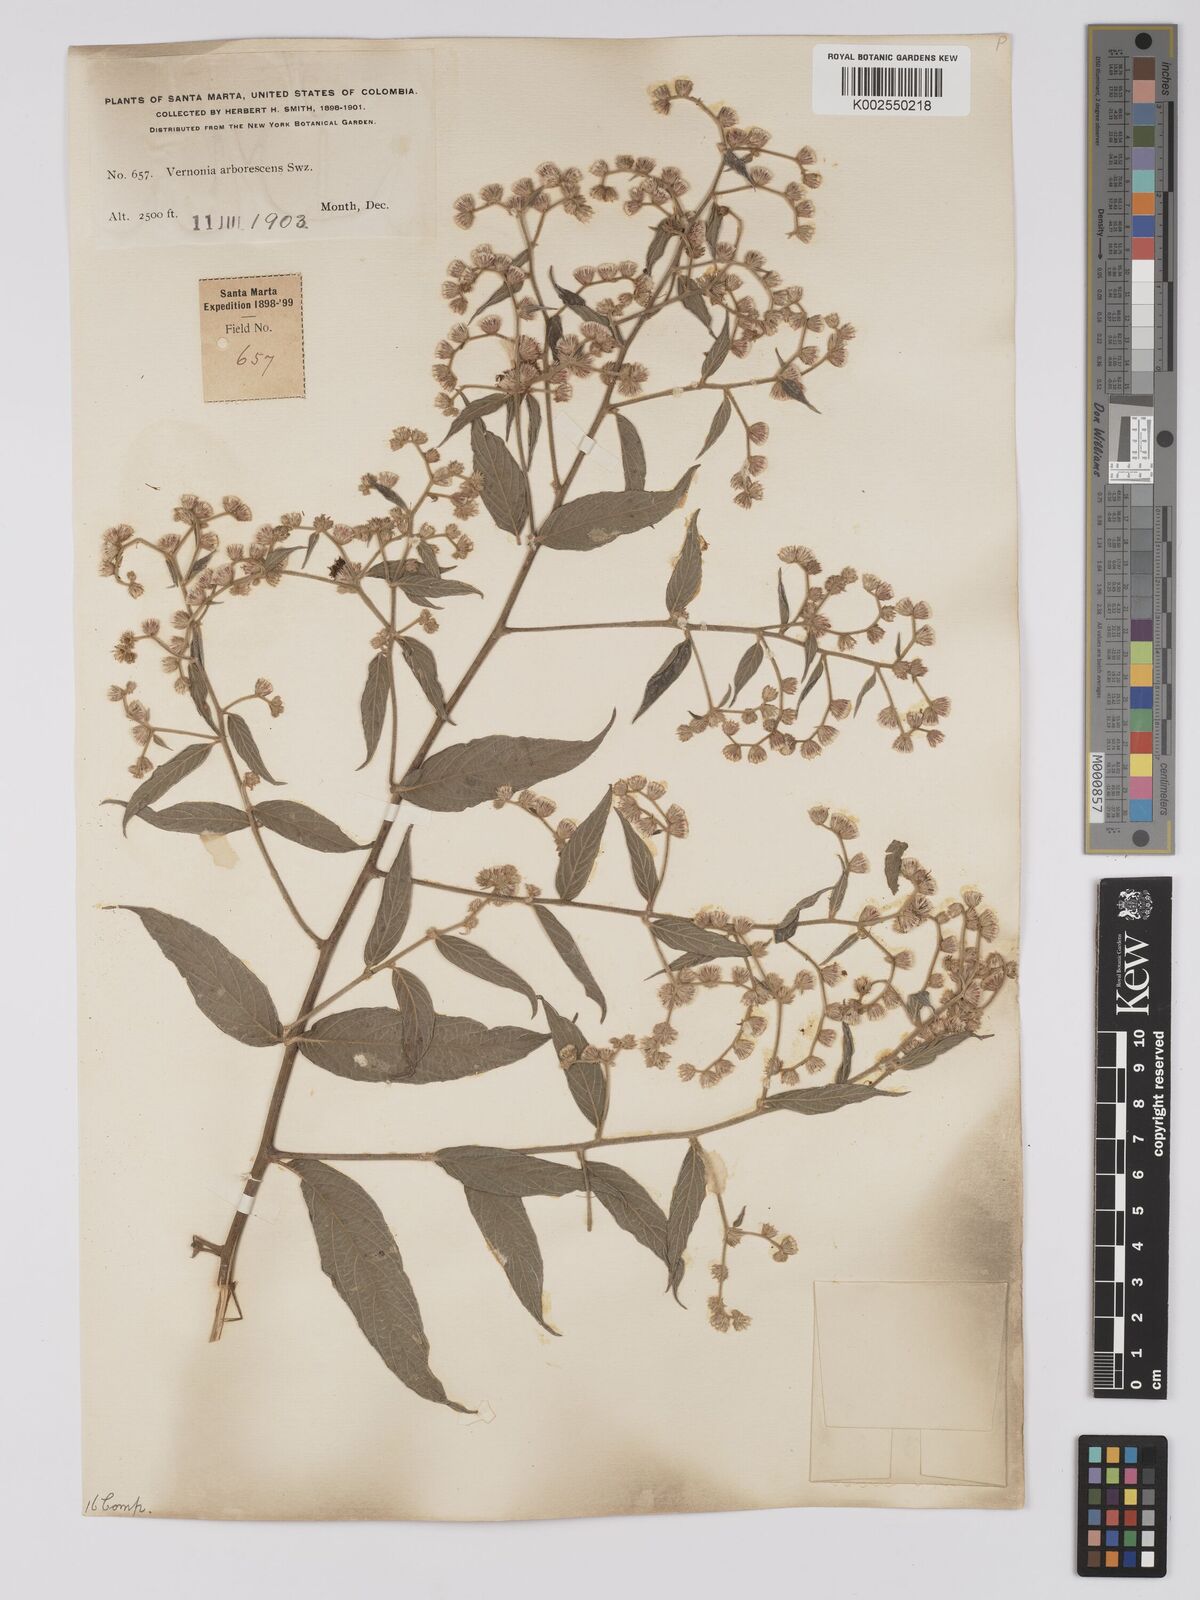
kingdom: Plantae
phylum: Tracheophyta
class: Magnoliopsida
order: Asterales
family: Asteraceae
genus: Lepidaploa
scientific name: Lepidaploa arborescens
